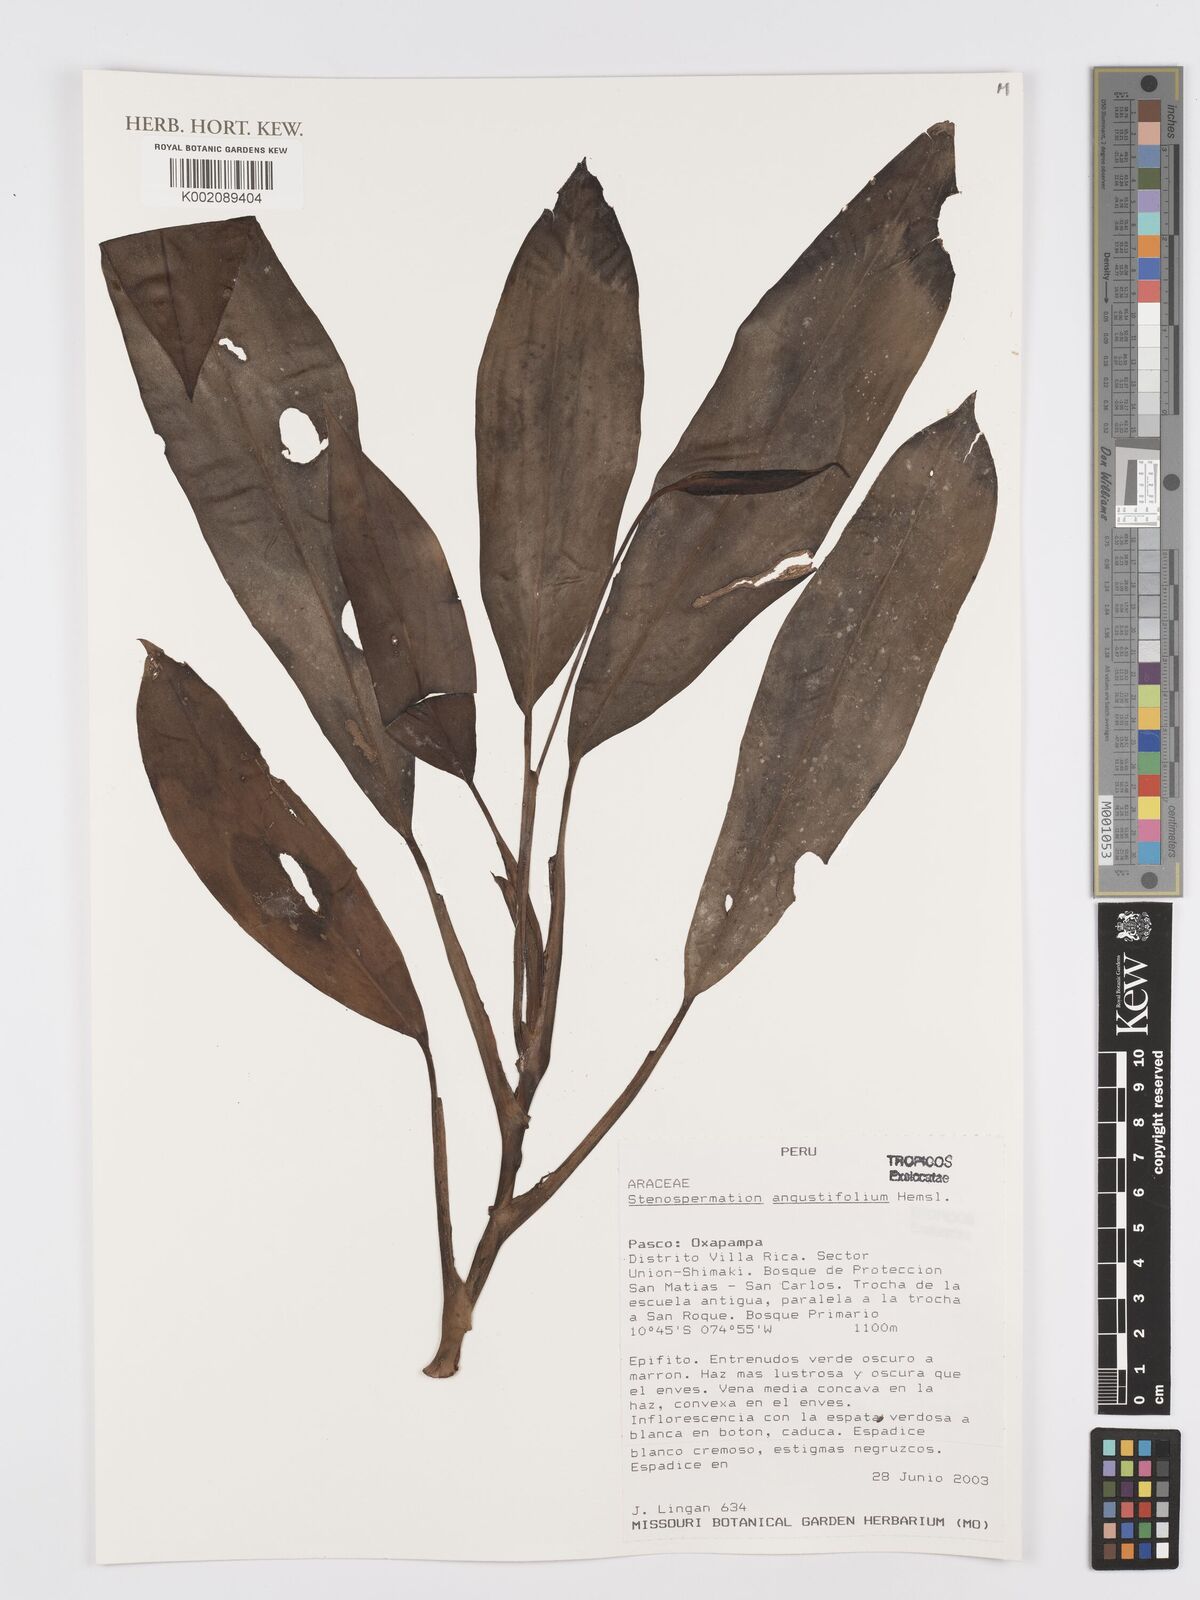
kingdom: Plantae
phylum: Tracheophyta
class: Liliopsida
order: Alismatales
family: Araceae
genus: Stenospermation
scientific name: Stenospermation angustifolium
